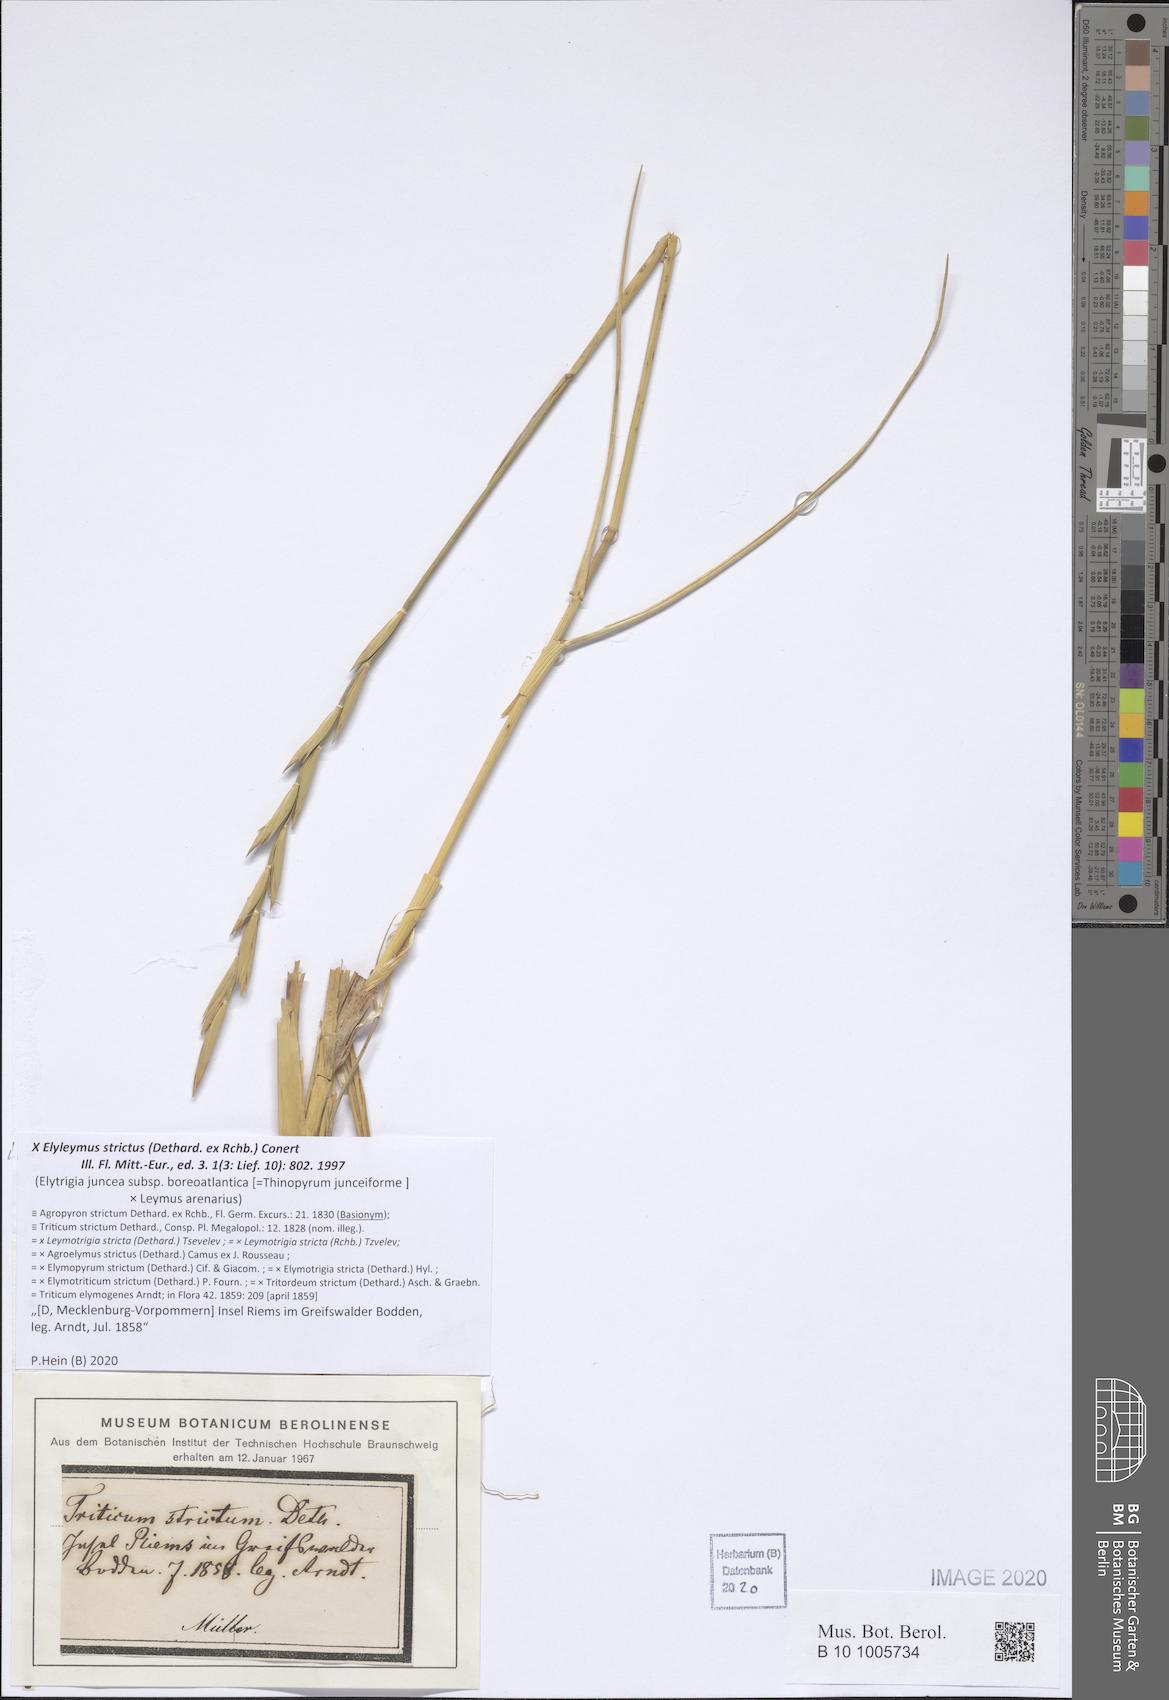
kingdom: Plantae
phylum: Tracheophyta
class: Liliopsida
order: Poales
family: Poaceae
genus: Elyleymus
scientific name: Elyleymus strictus
